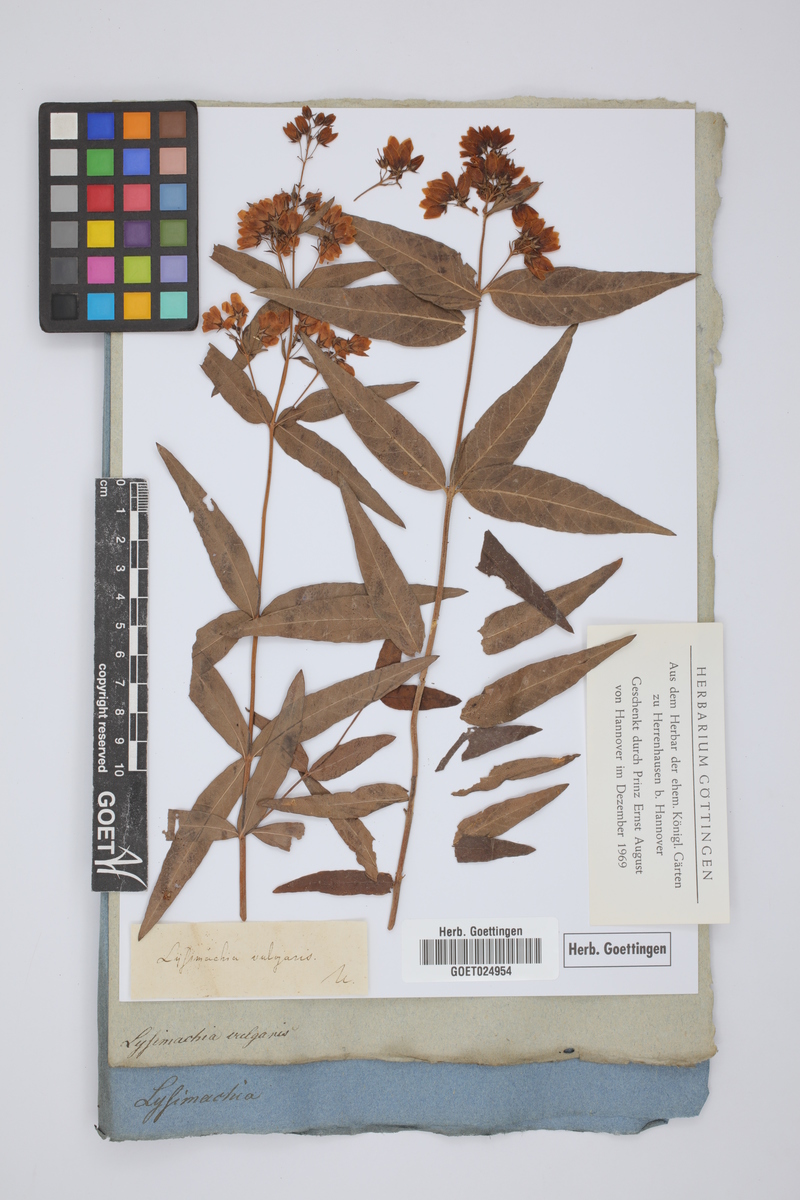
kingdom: Plantae
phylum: Tracheophyta
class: Magnoliopsida
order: Ericales
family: Primulaceae
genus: Lysimachia
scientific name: Lysimachia vulgaris
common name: Yellow loosestrife
